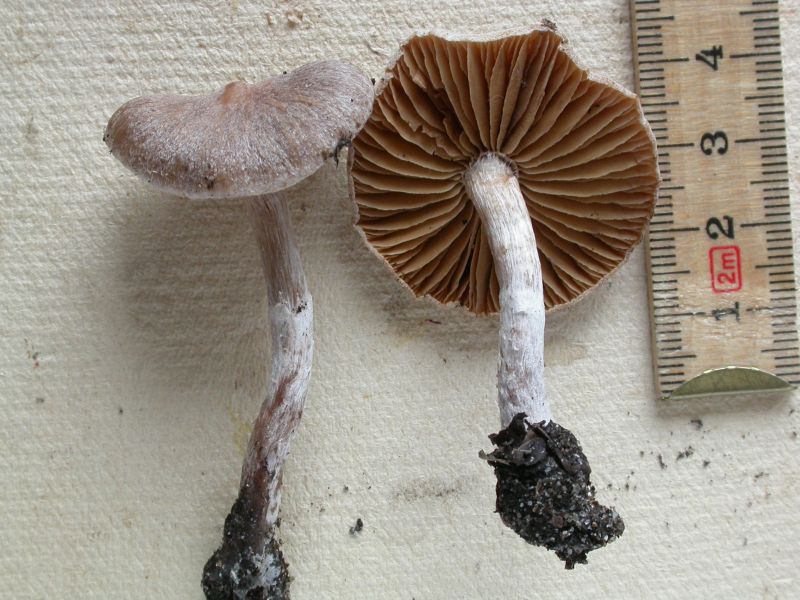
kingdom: Fungi
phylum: Basidiomycota
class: Agaricomycetes
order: Agaricales
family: Cortinariaceae
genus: Cortinarius
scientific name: Cortinarius hemitrichus
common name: hvidfnugget slørhat
